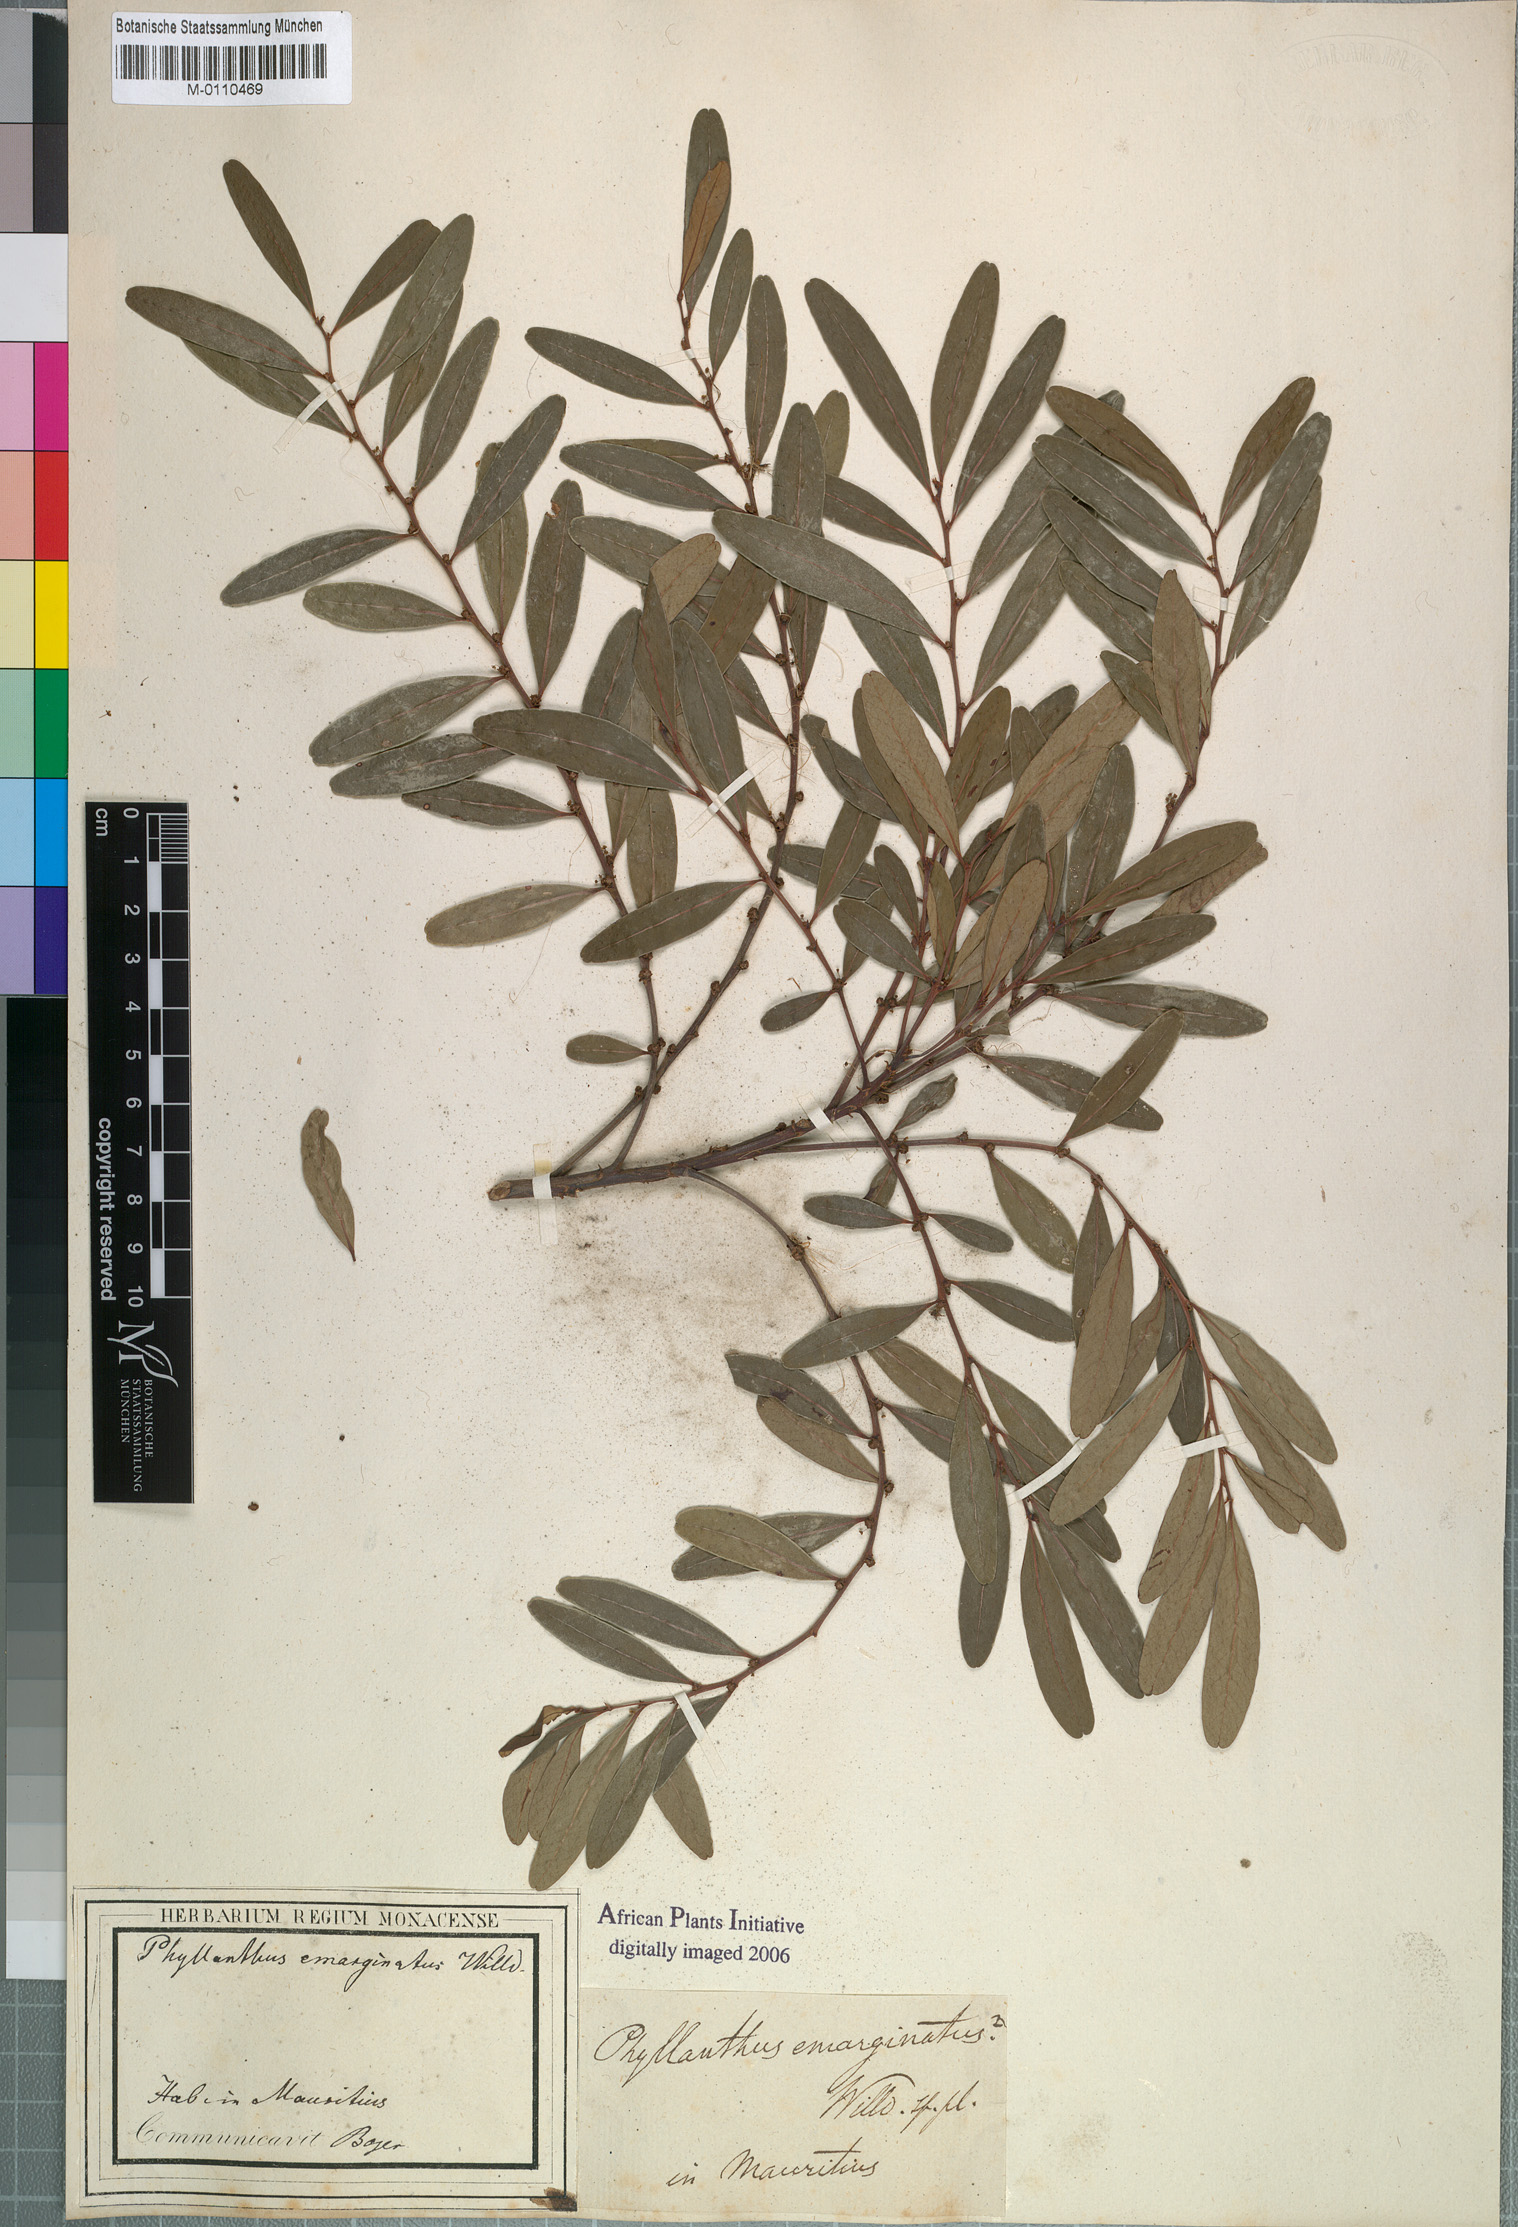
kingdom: Plantae
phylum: Tracheophyta
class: Magnoliopsida
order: Malpighiales
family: Phyllanthaceae
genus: Glochidion
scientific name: Glochidion emarginatum
